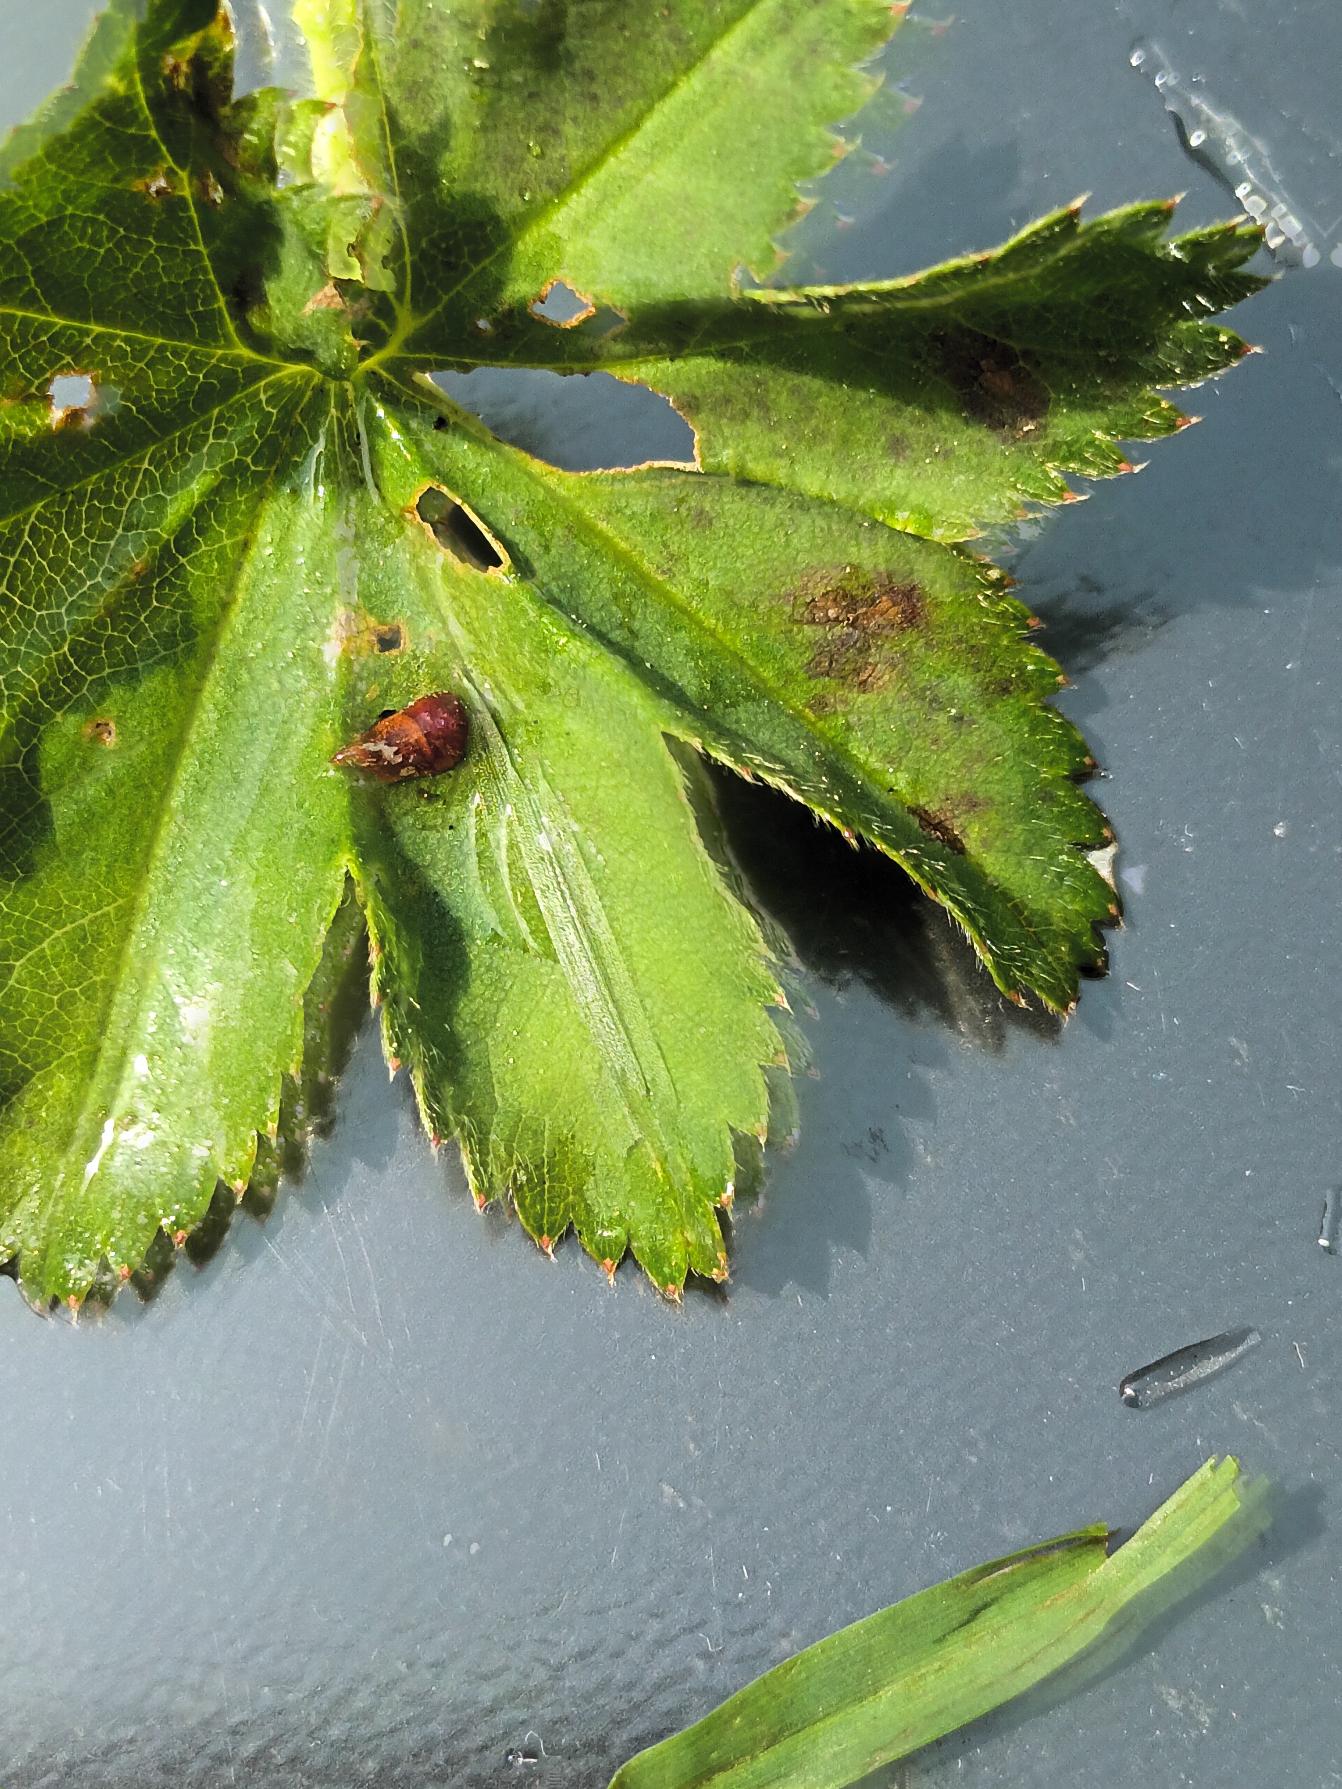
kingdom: Plantae
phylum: Tracheophyta
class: Magnoliopsida
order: Rosales
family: Rosaceae
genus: Alchemilla
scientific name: Alchemilla xanthochlora
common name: Gulgrøn løvefod
